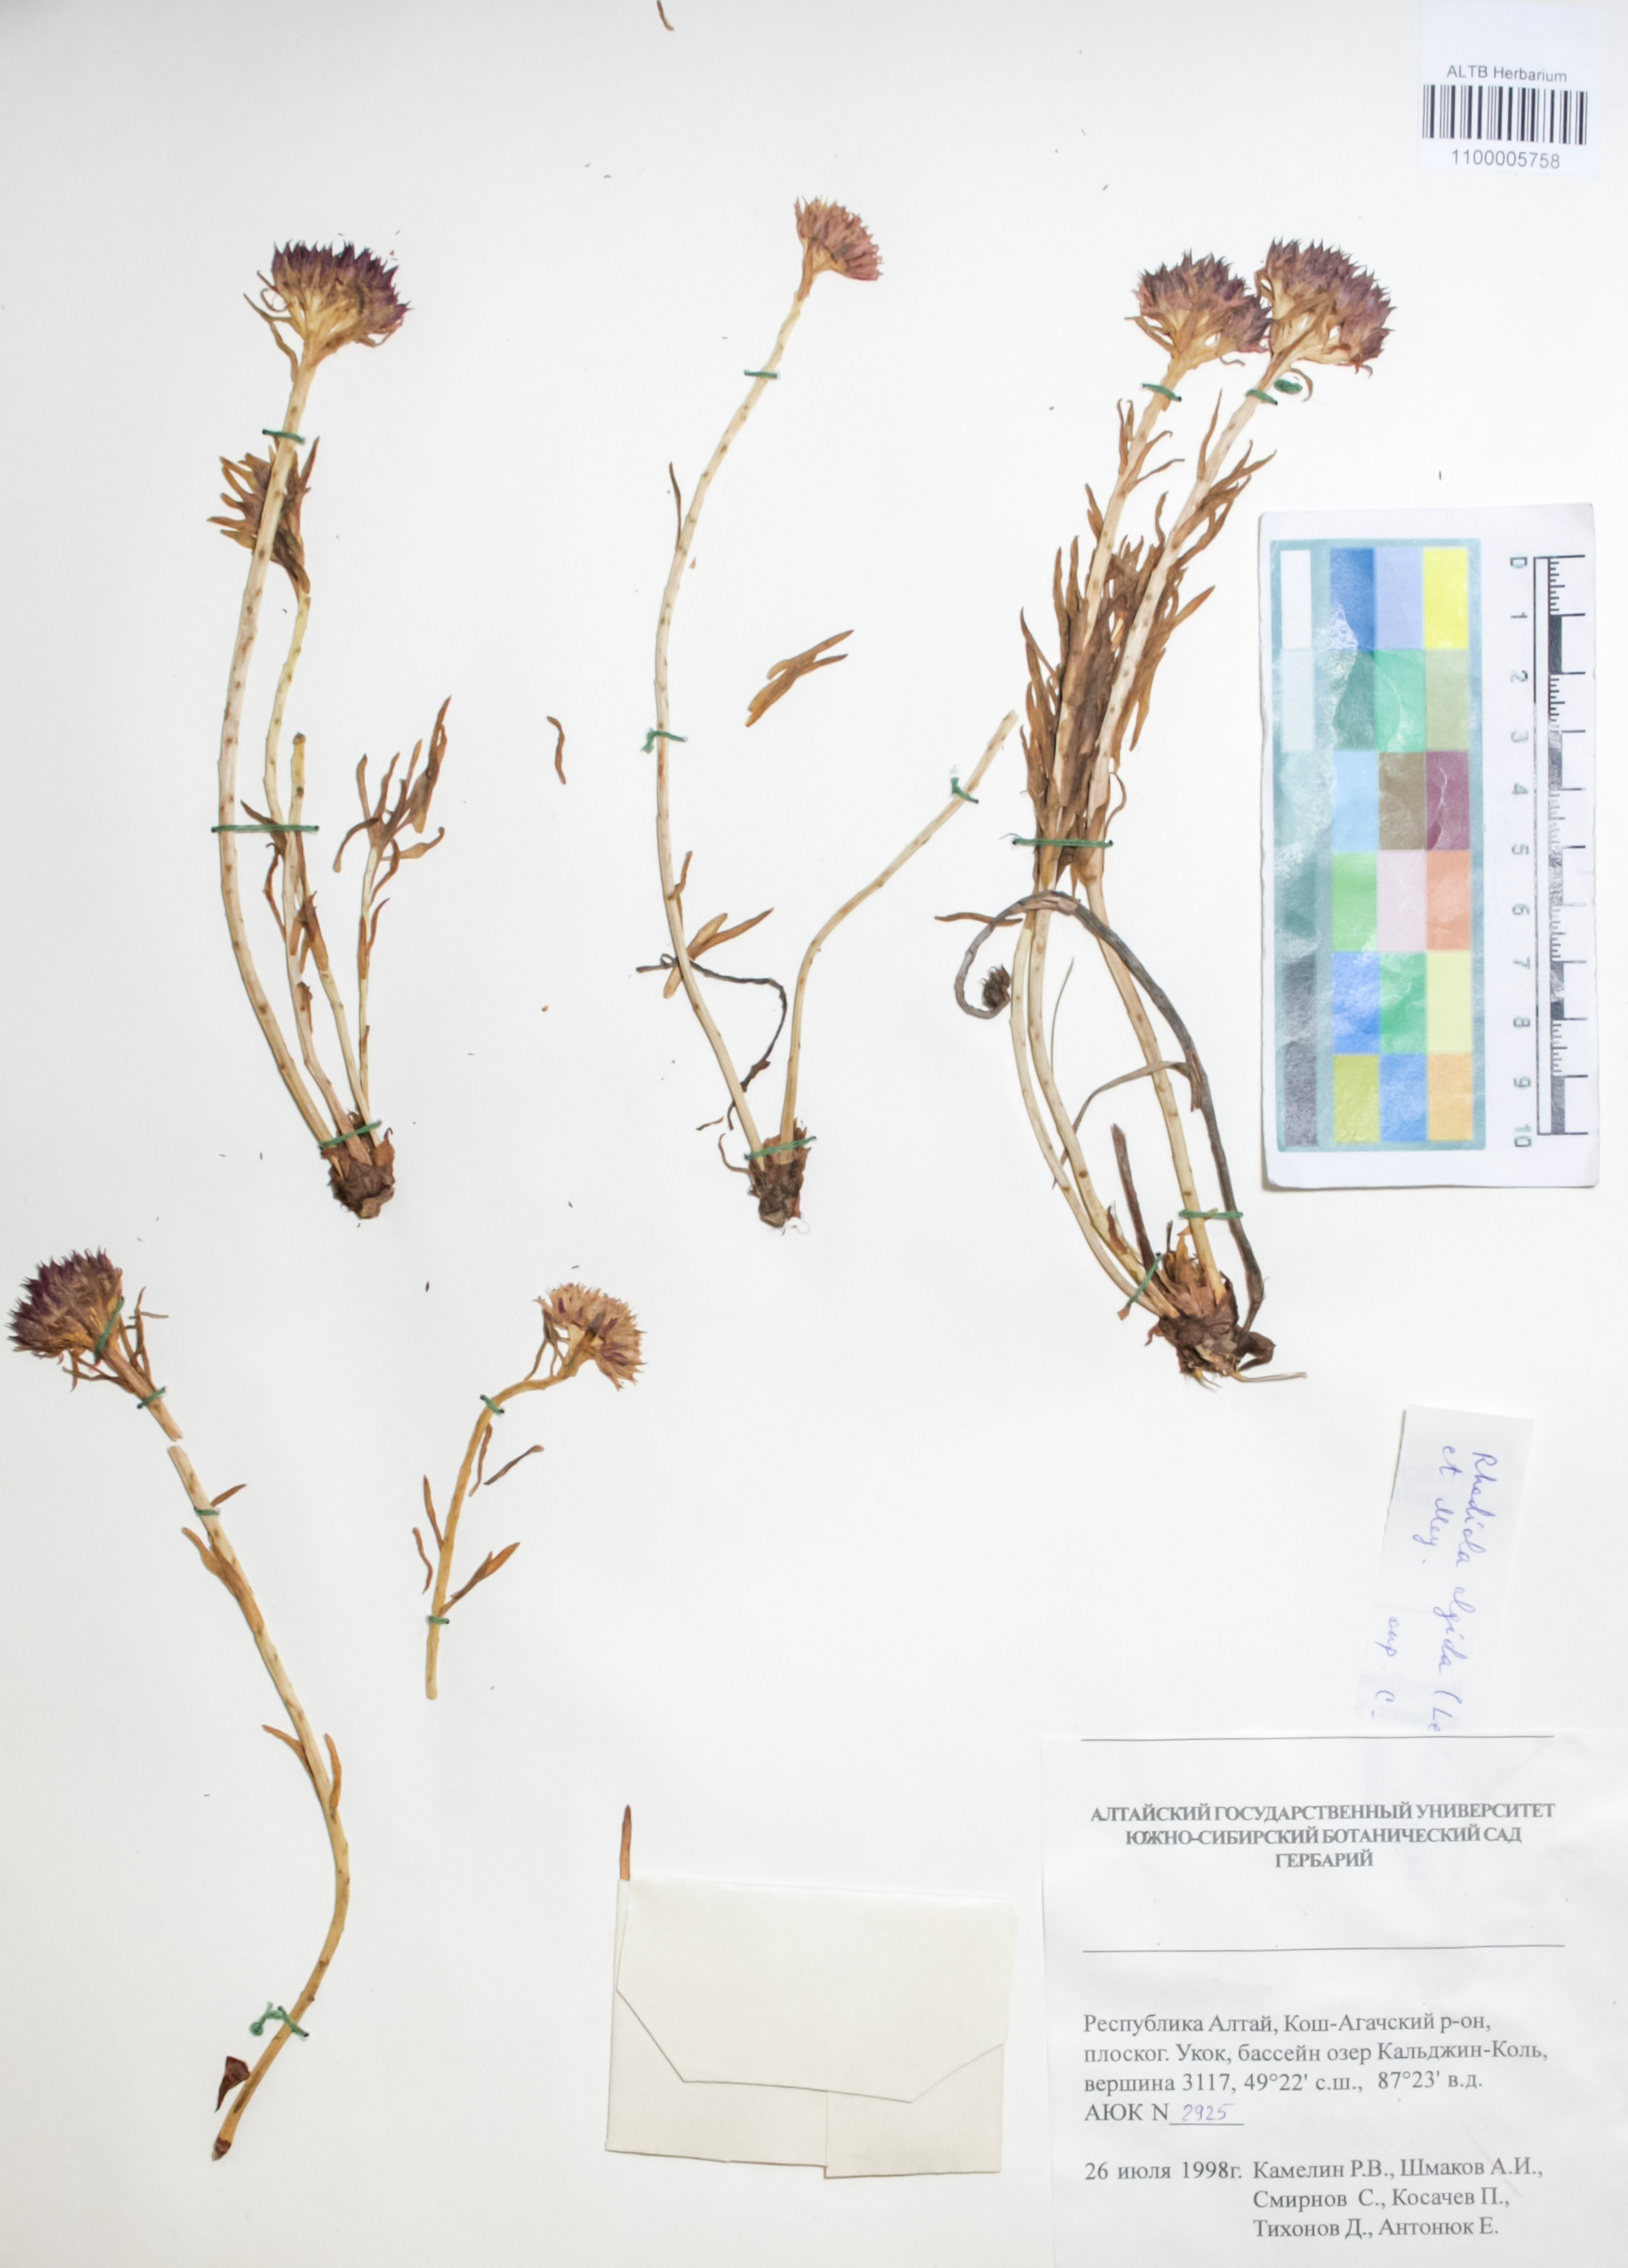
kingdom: Plantae
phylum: Tracheophyta
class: Magnoliopsida
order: Saxifragales
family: Crassulaceae
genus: Rhodiola
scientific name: Rhodiola algida
